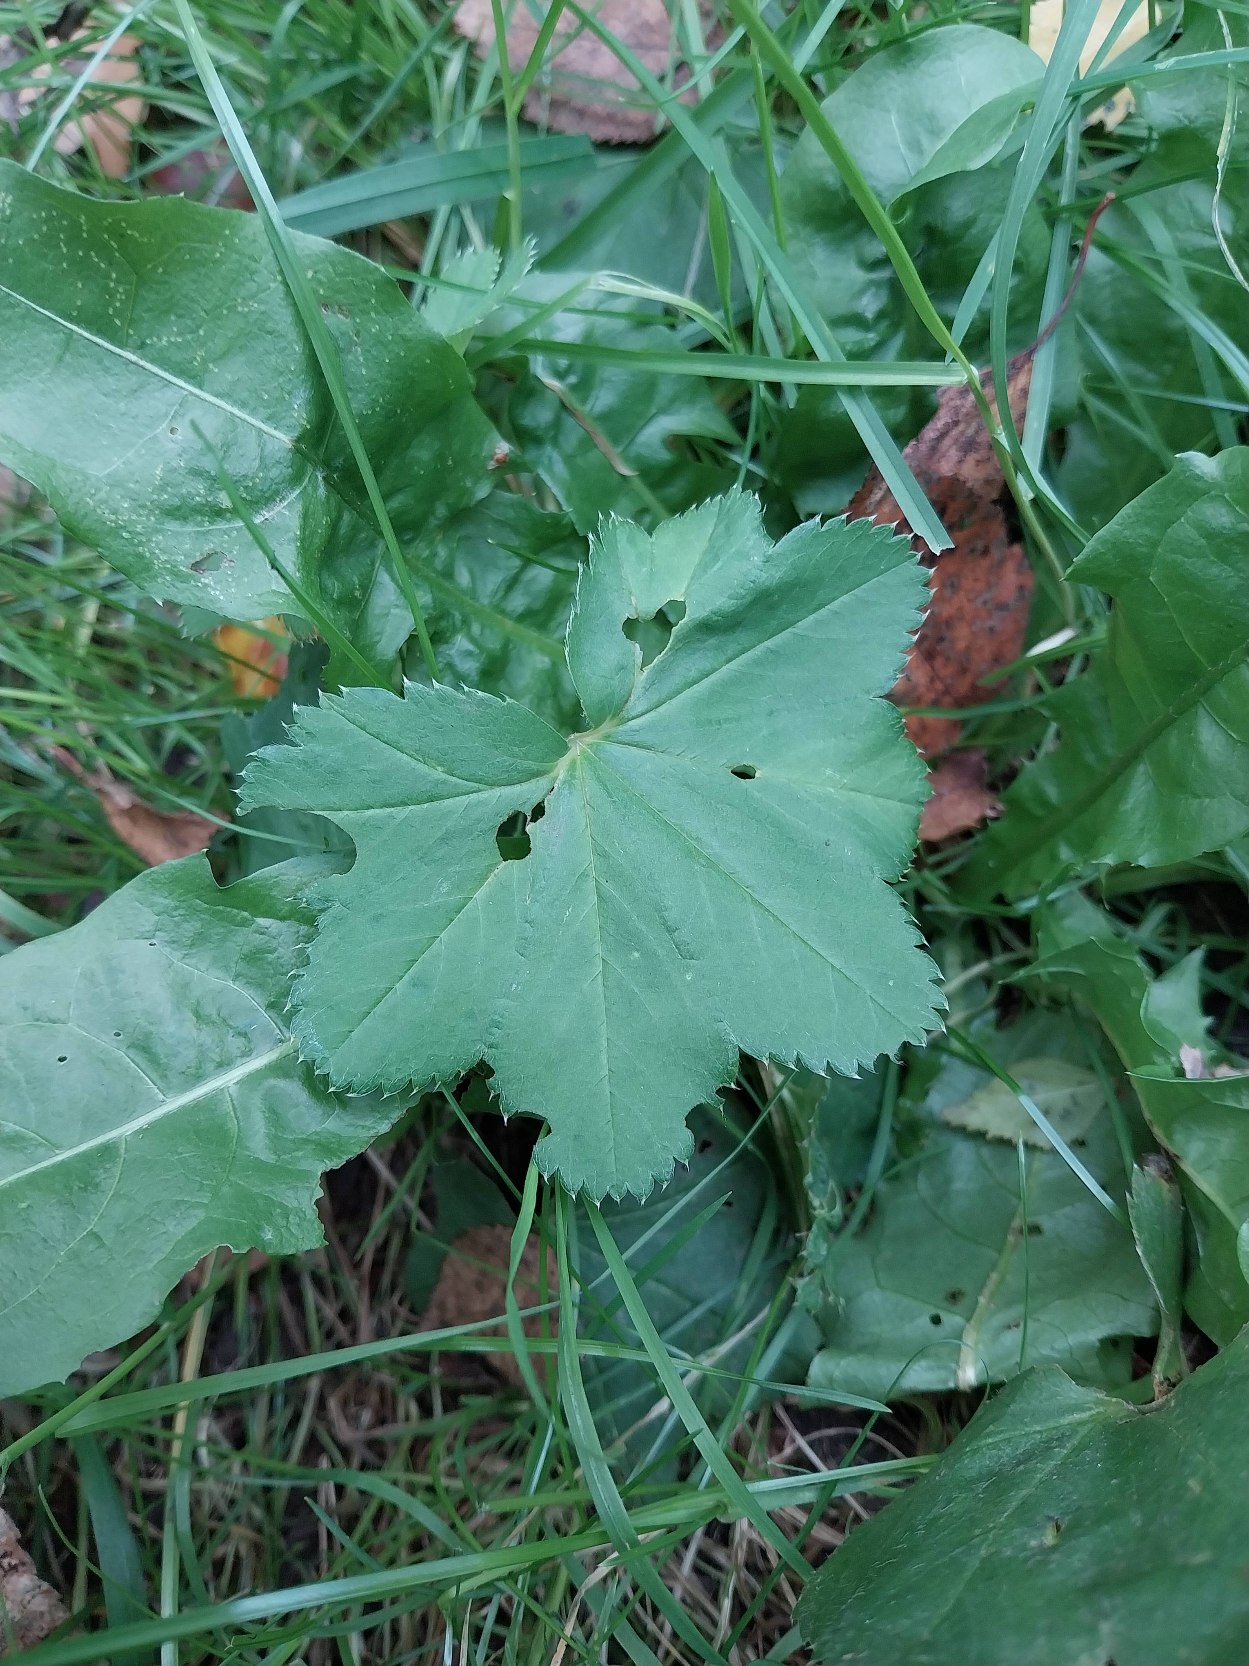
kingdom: Plantae
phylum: Tracheophyta
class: Magnoliopsida
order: Rosales
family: Rosaceae
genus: Alchemilla
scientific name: Alchemilla glabra
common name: Glat løvefod
